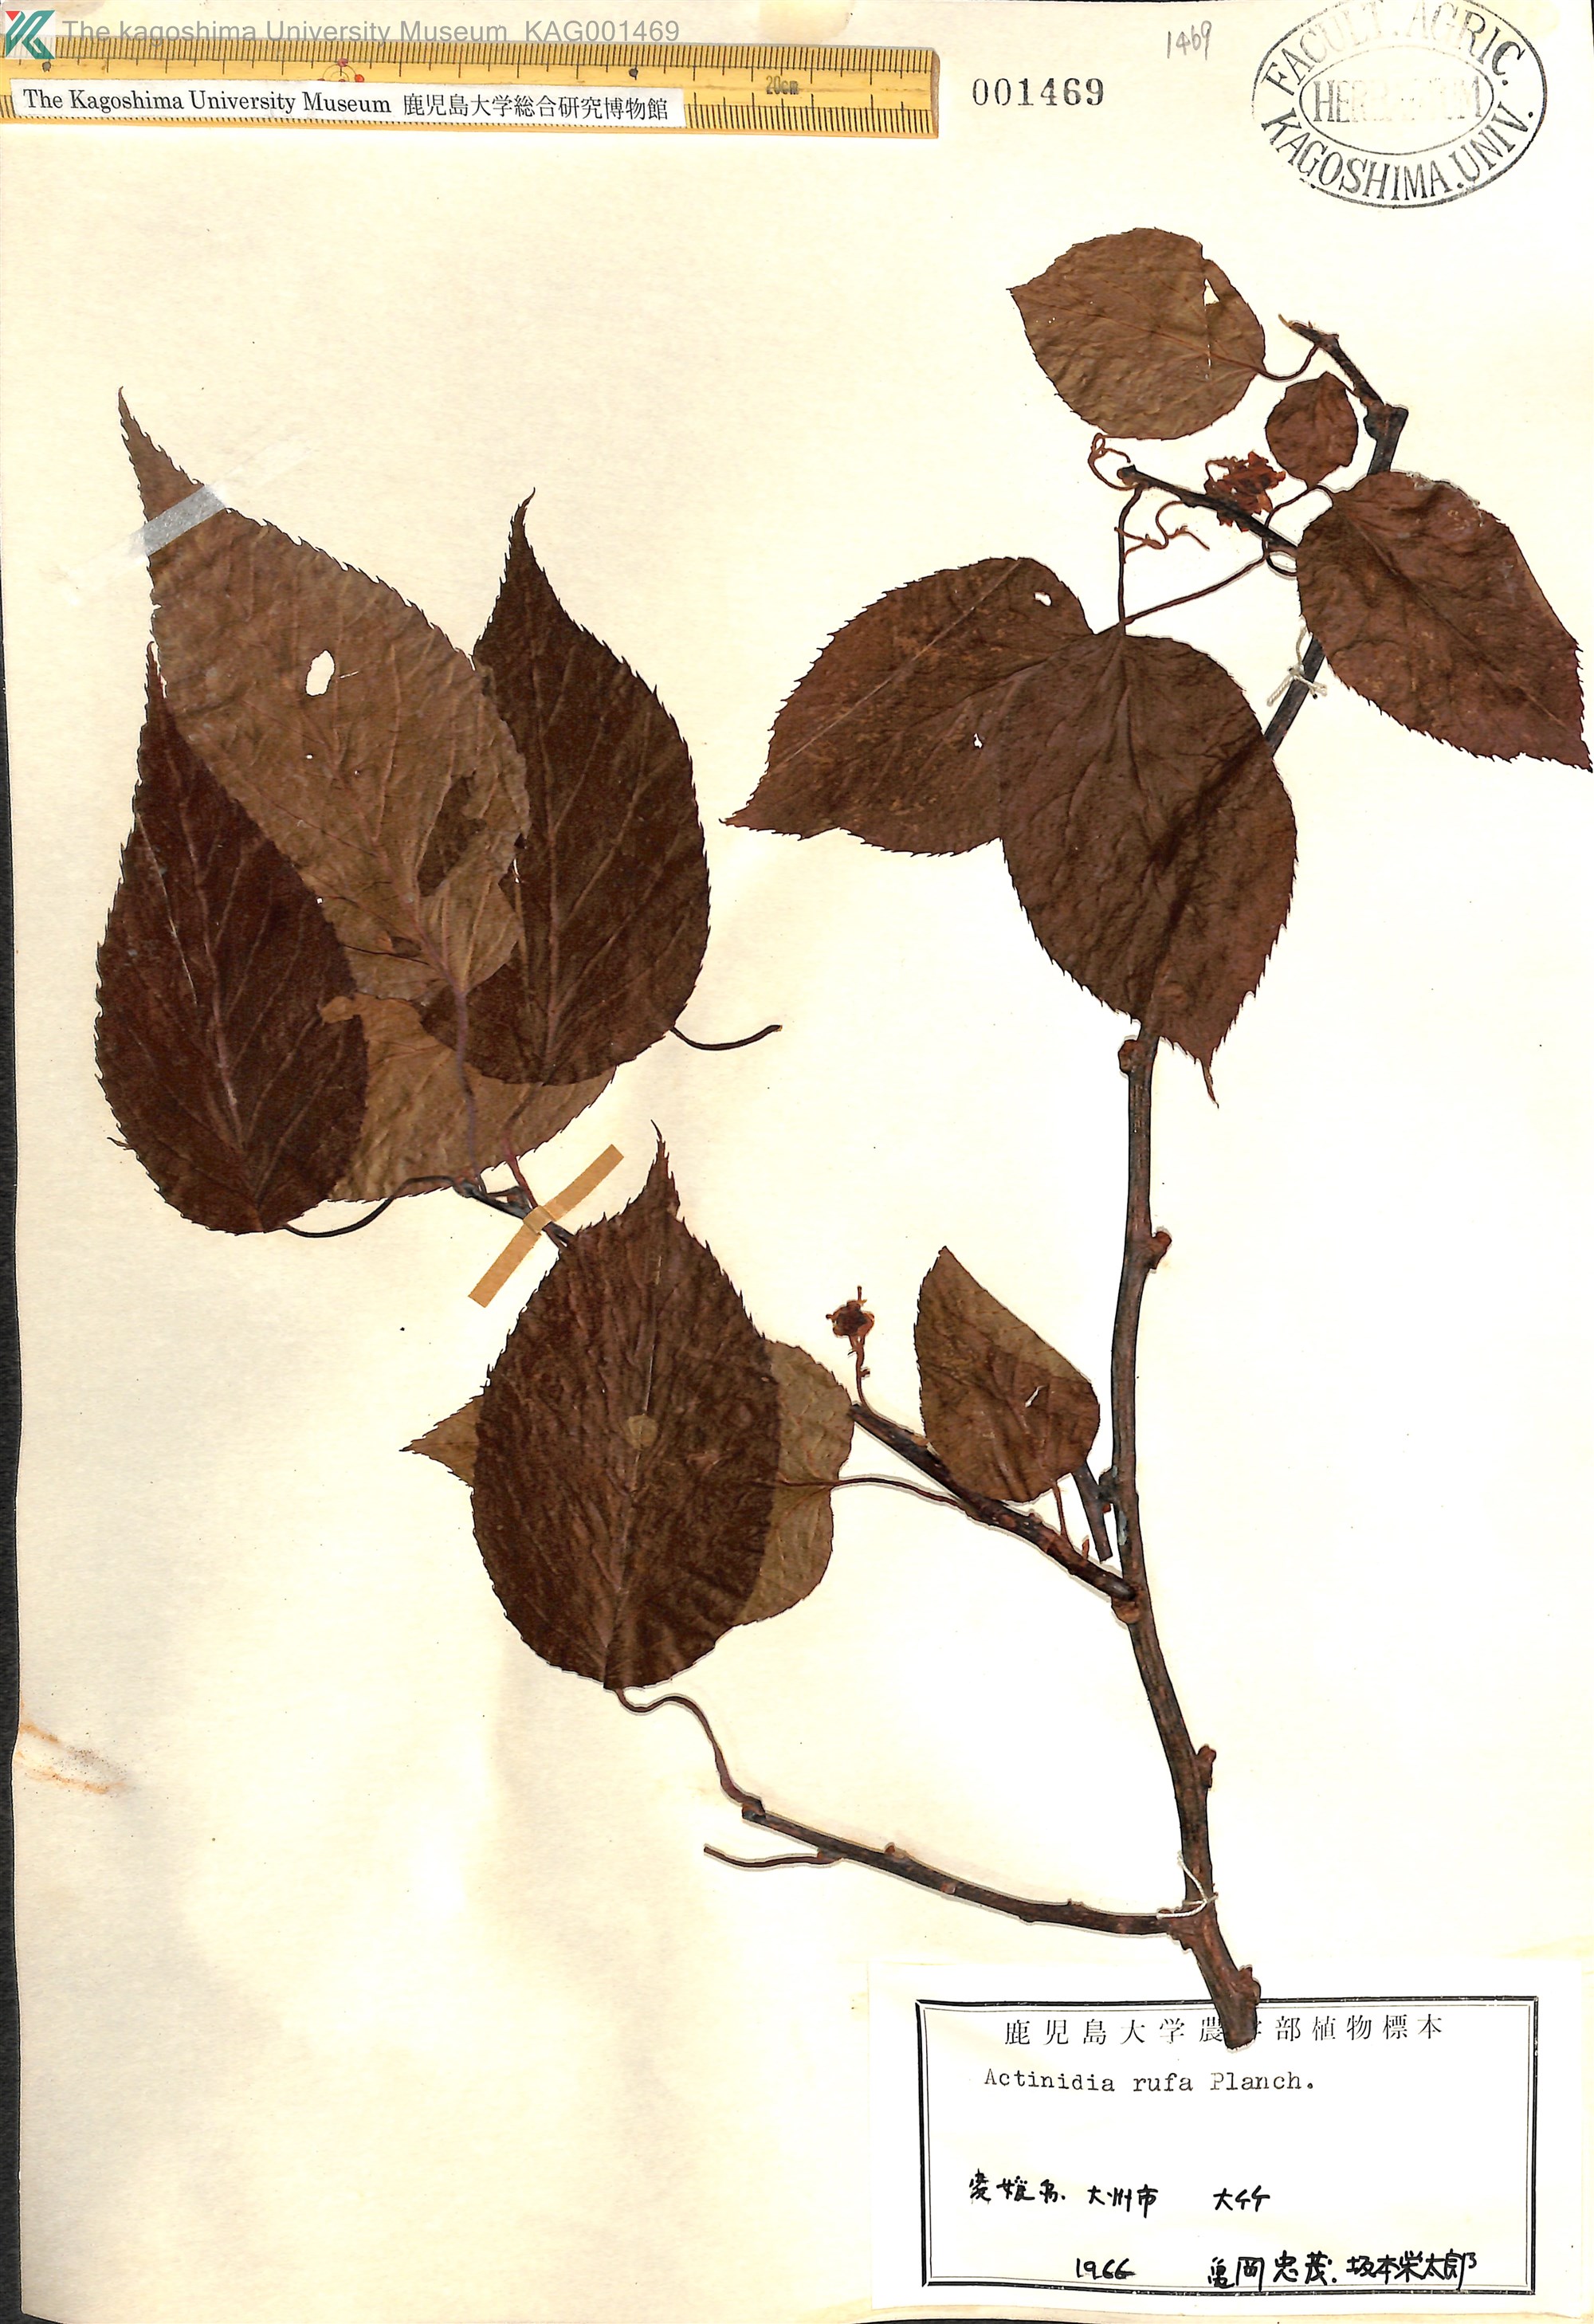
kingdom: Plantae
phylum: Tracheophyta
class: Magnoliopsida
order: Ericales
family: Actinidiaceae
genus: Actinidia
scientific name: Actinidia rufa
